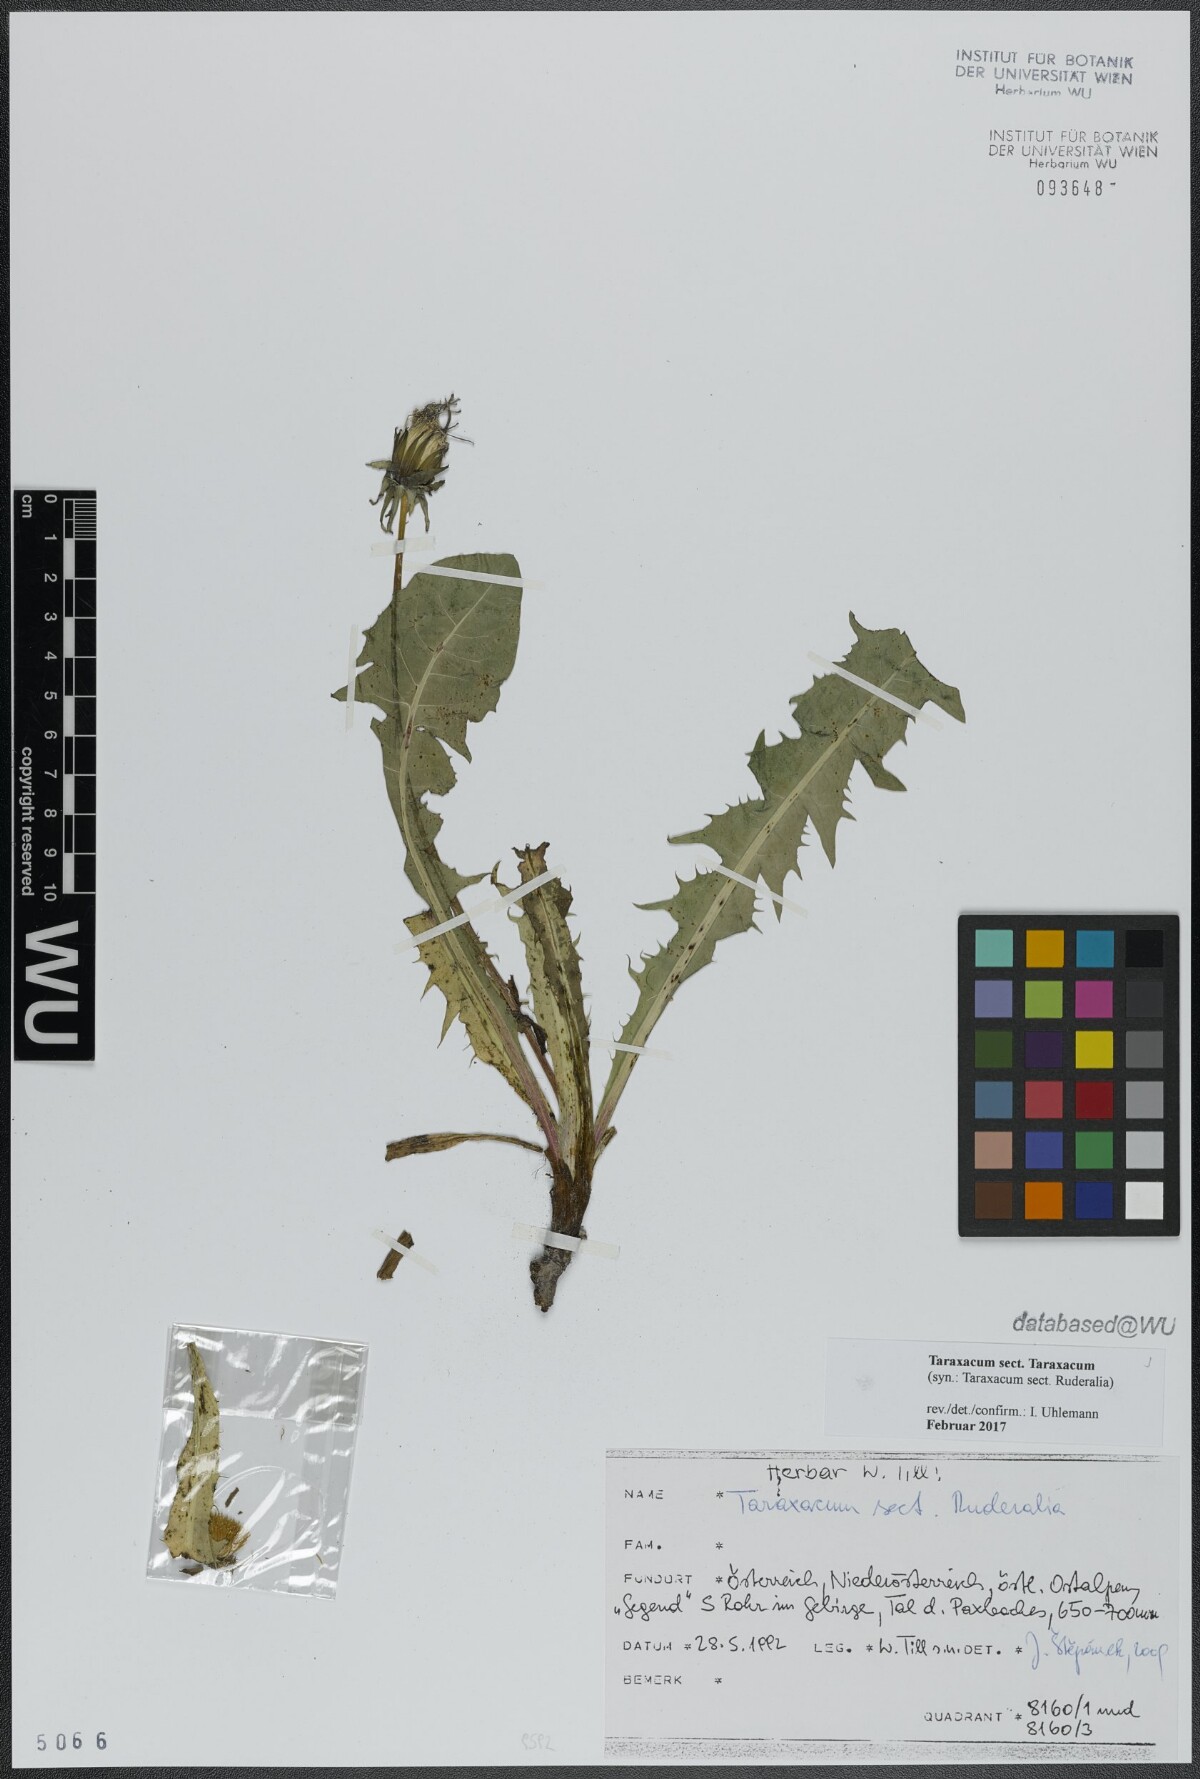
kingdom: Plantae
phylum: Tracheophyta
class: Magnoliopsida
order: Asterales
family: Asteraceae
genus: Taraxacum
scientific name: Taraxacum
